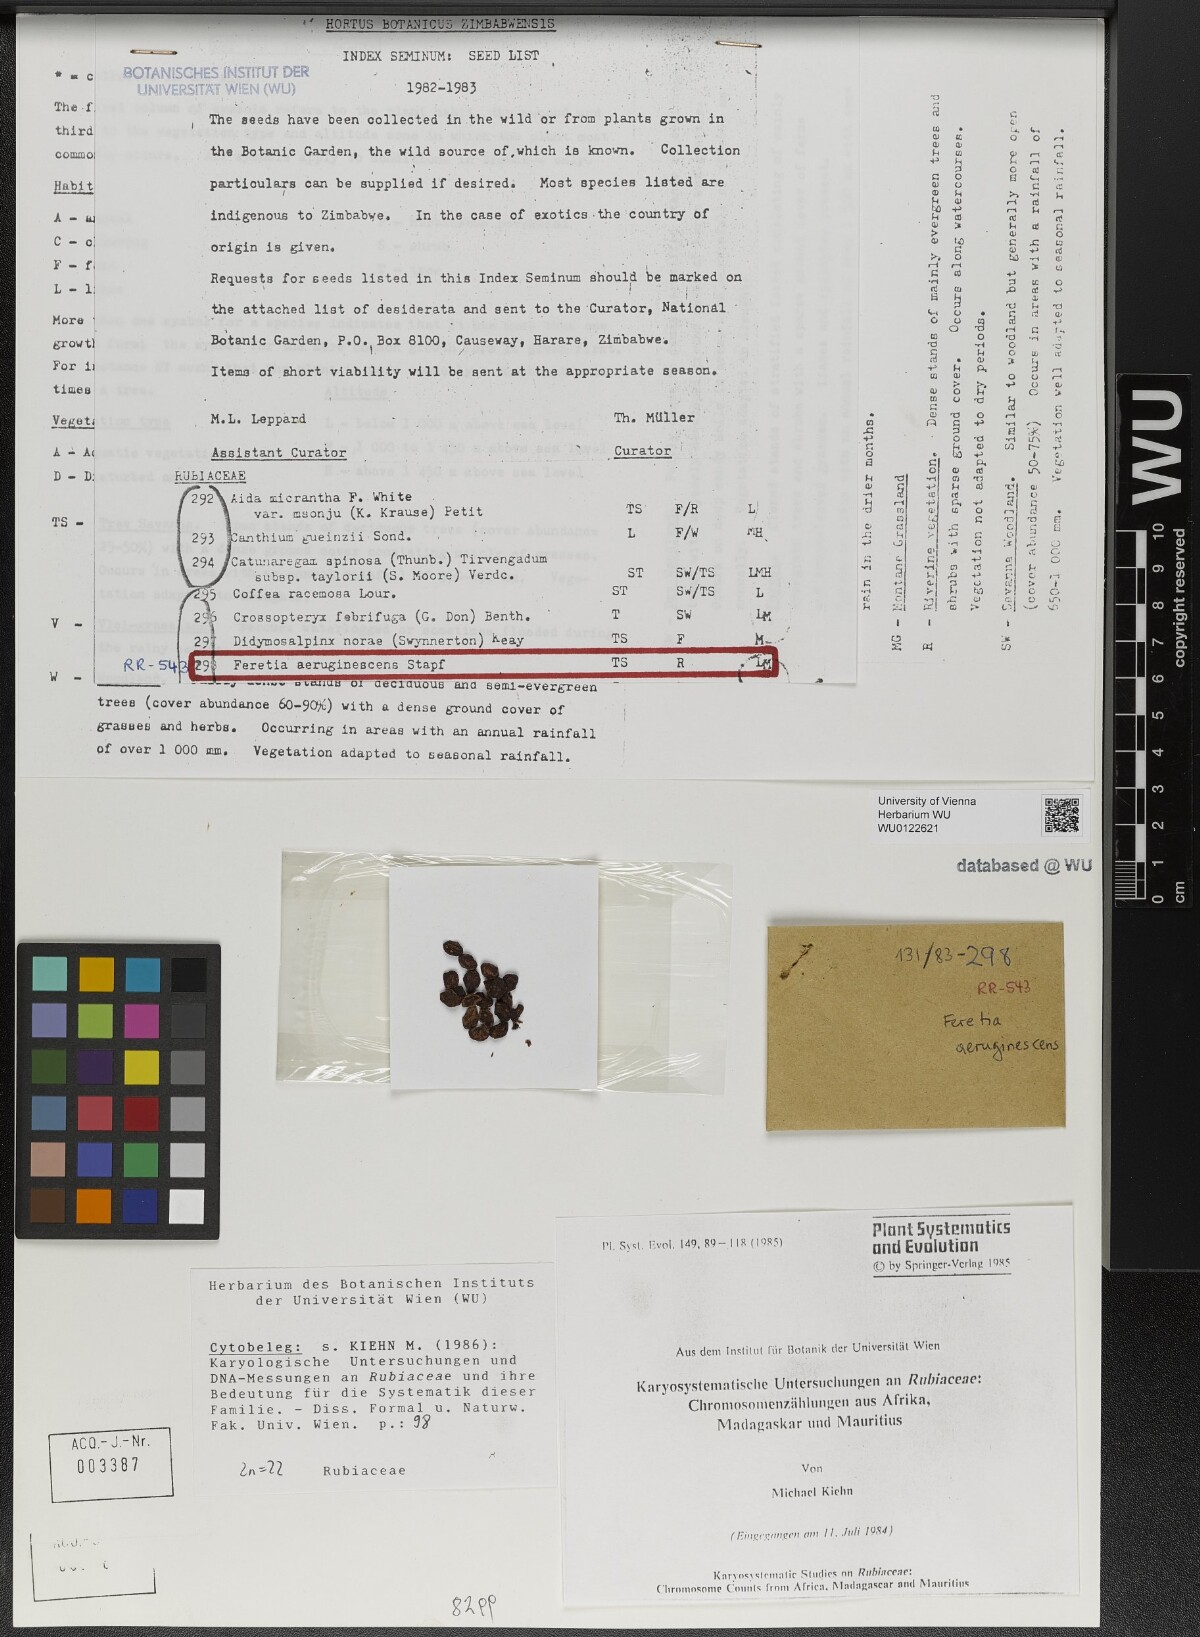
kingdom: Plantae
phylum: Tracheophyta
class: Magnoliopsida
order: Gentianales
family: Rubiaceae
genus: Feretia
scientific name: Feretia aeruginescens
